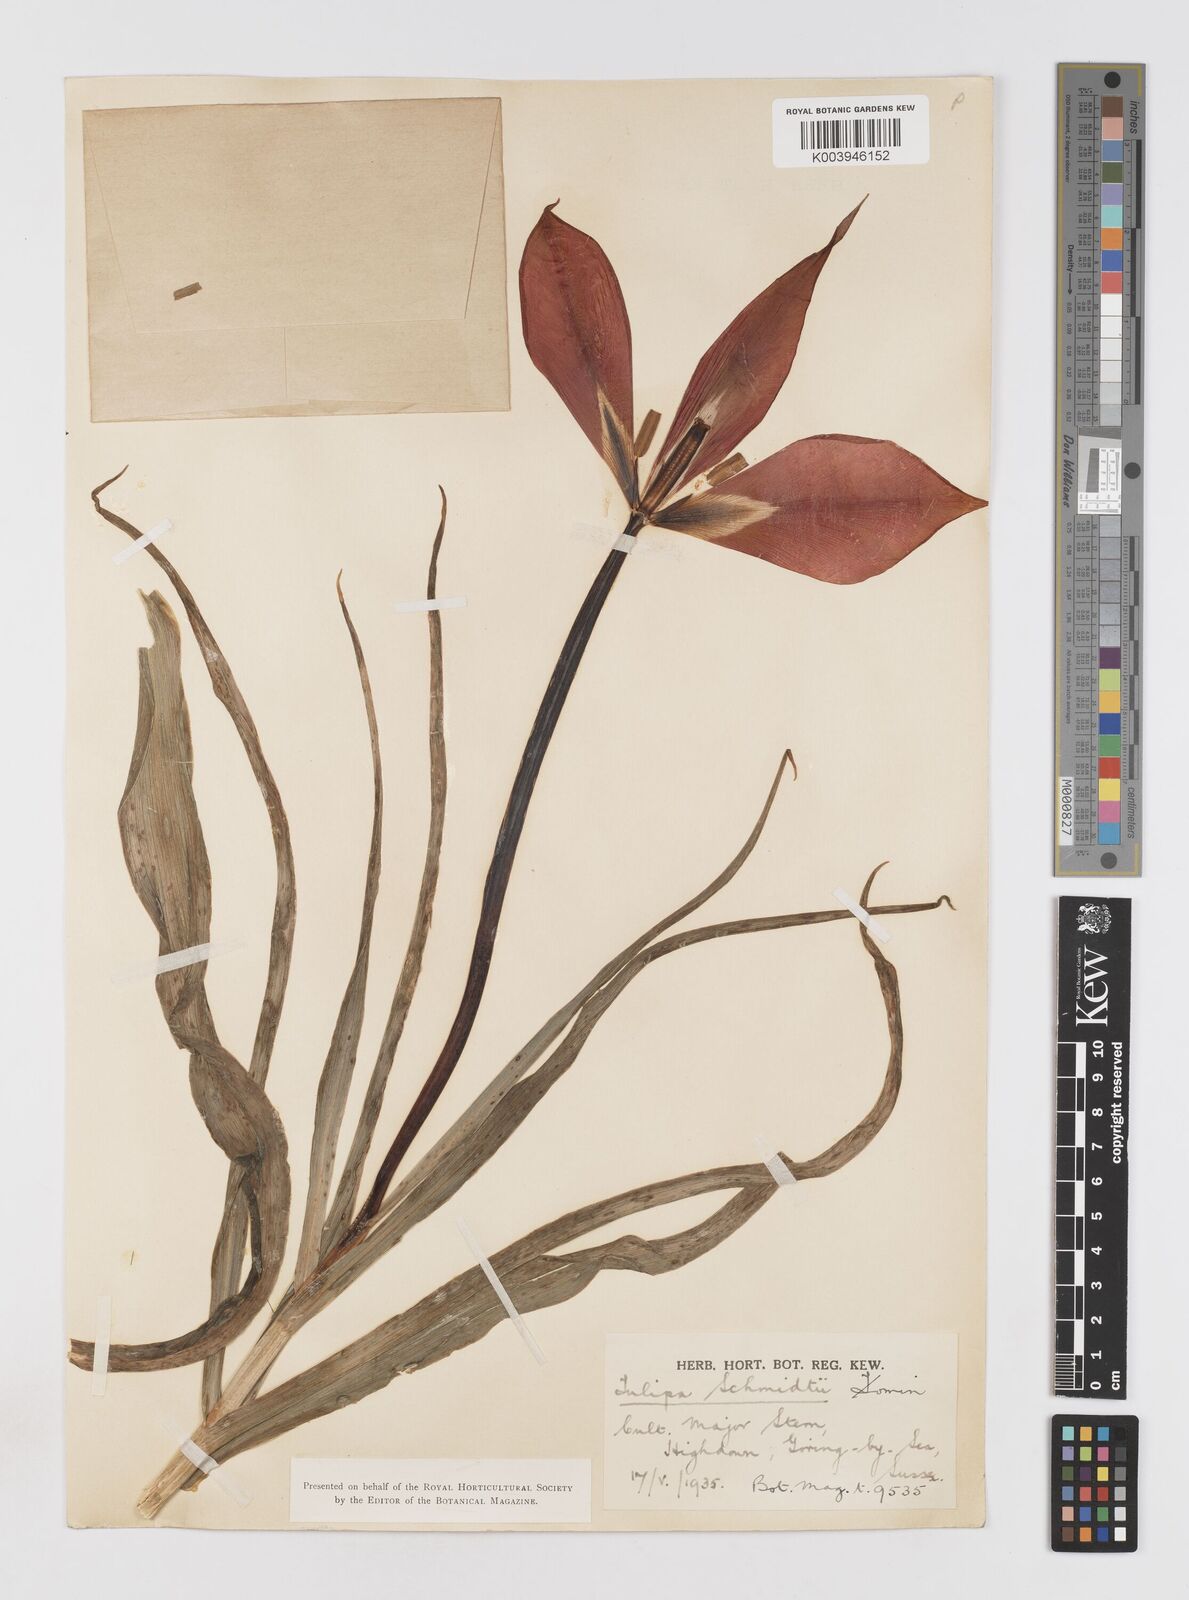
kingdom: Plantae
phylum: Tracheophyta
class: Liliopsida
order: Liliales
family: Liliaceae
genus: Tulipa
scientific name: Tulipa schmidtii
